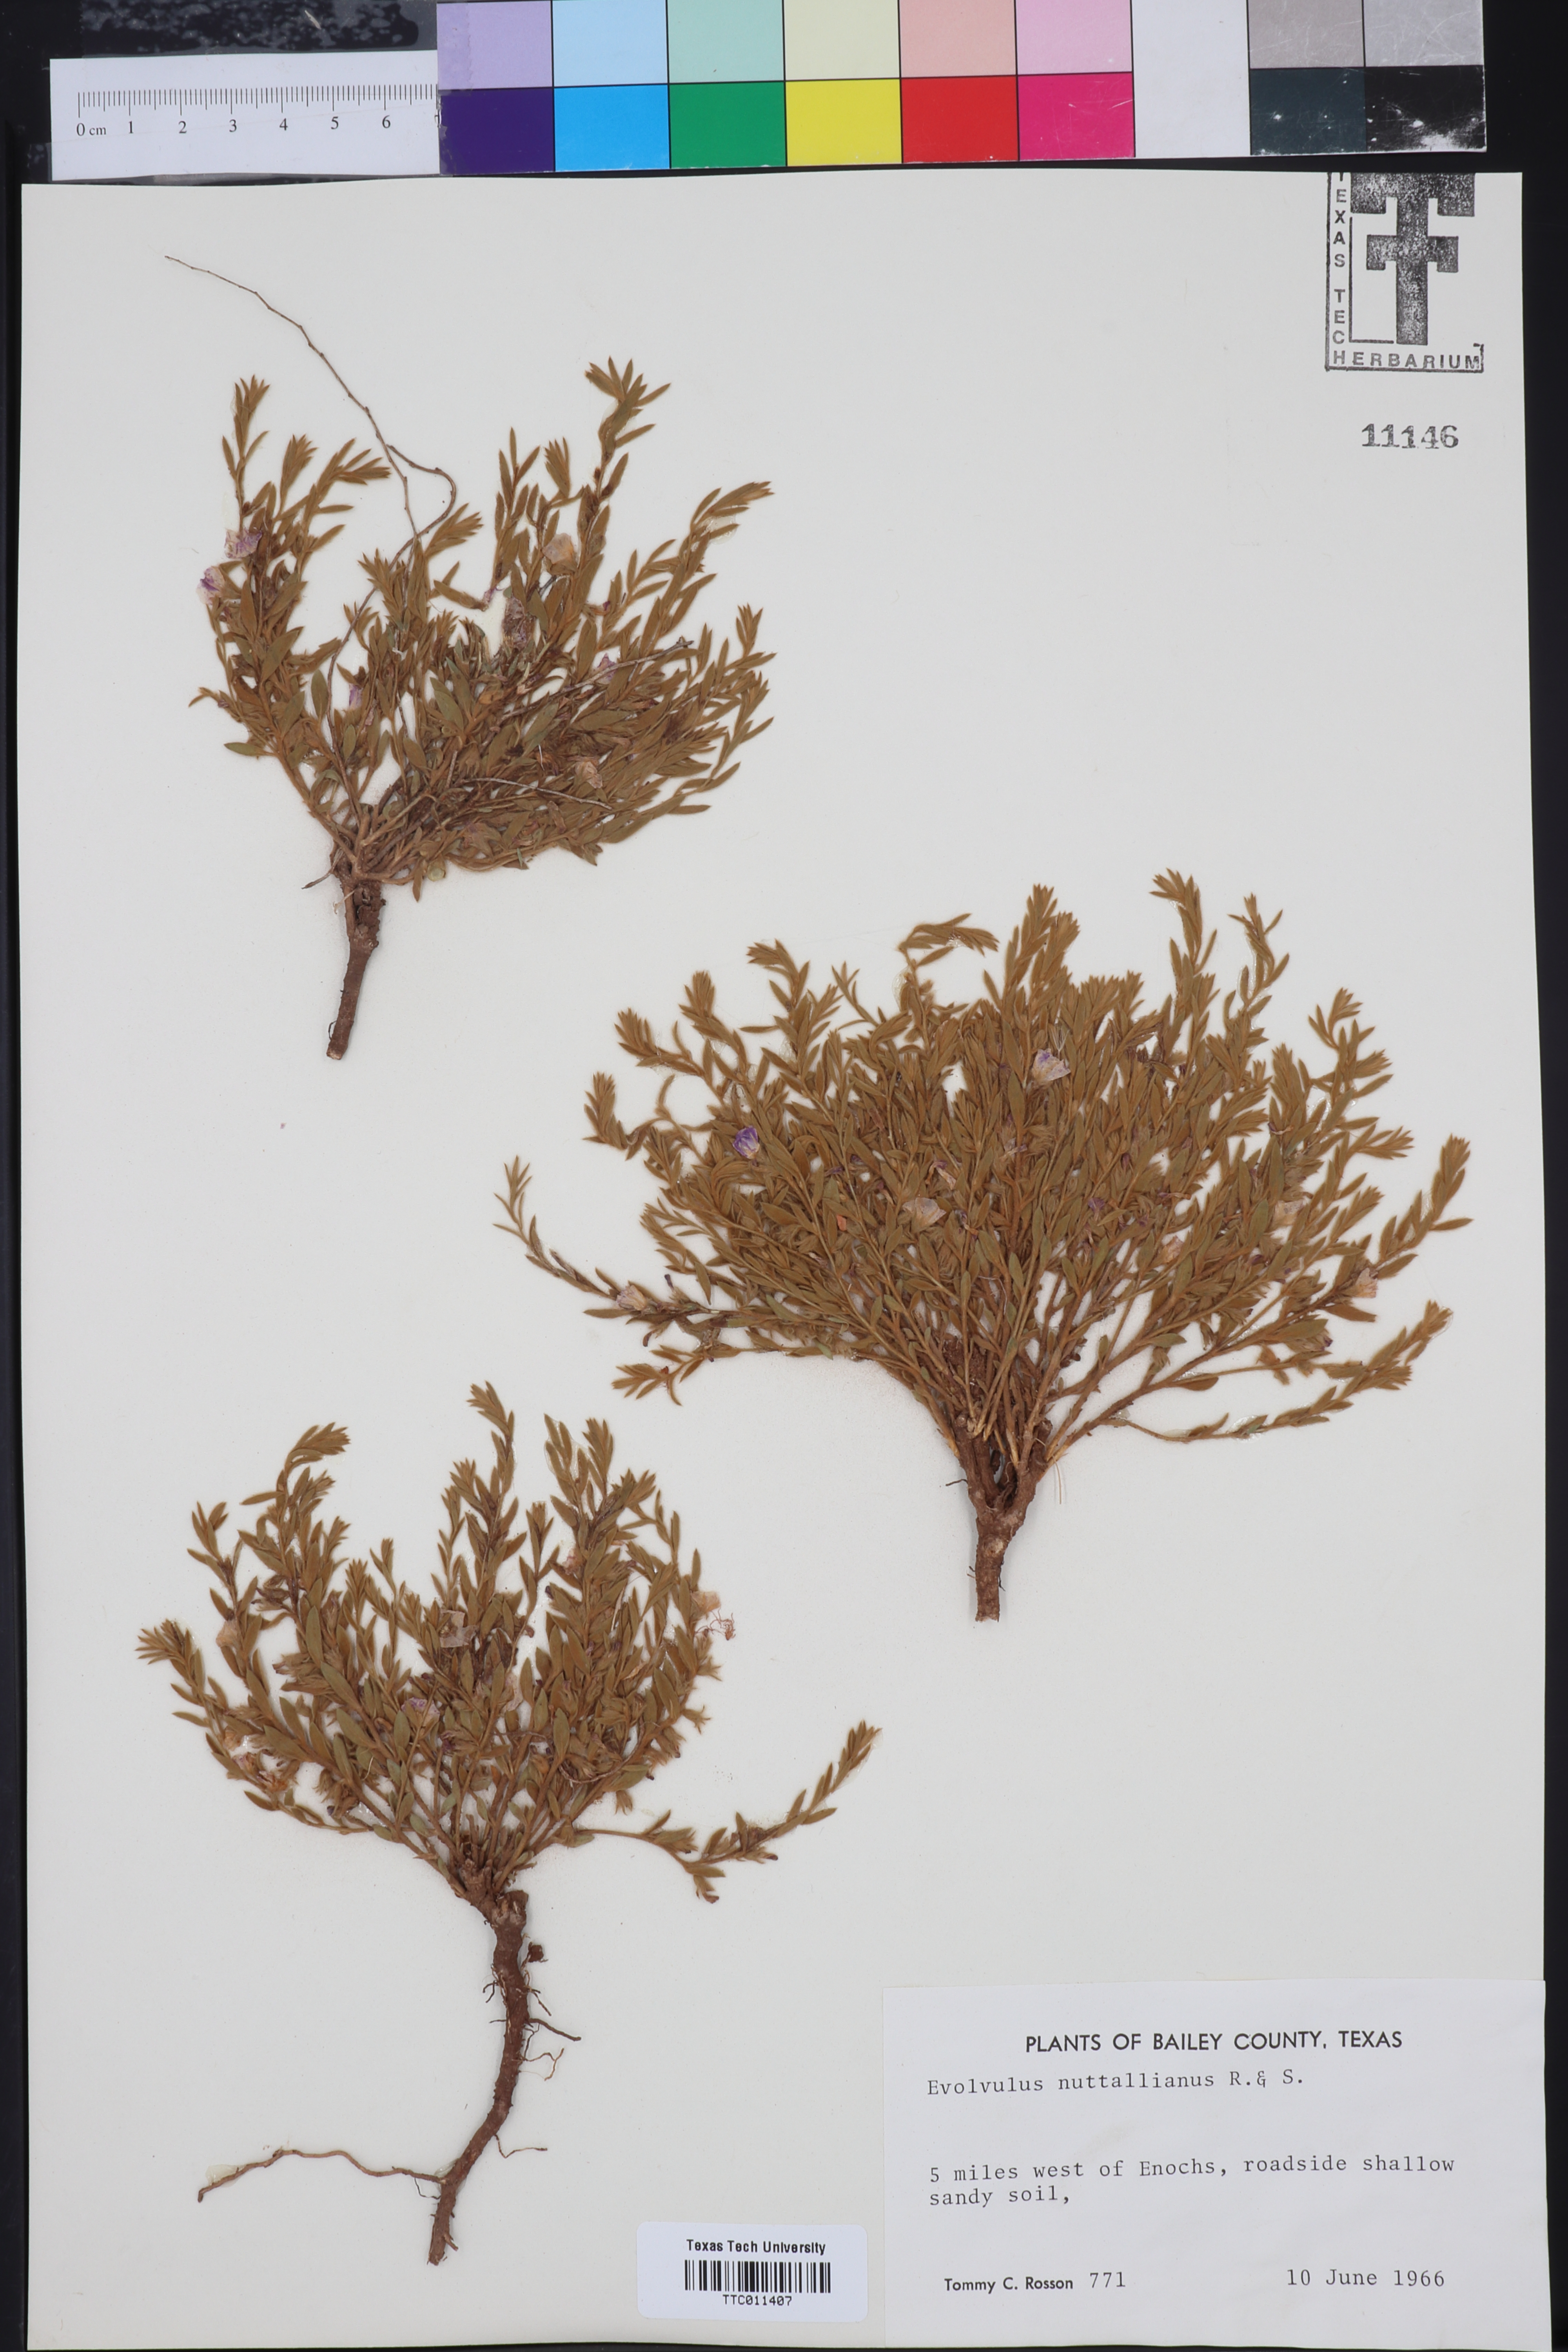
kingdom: Plantae
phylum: Tracheophyta
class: Magnoliopsida
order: Solanales
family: Convolvulaceae
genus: Evolvulus
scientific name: Evolvulus nuttallianus
